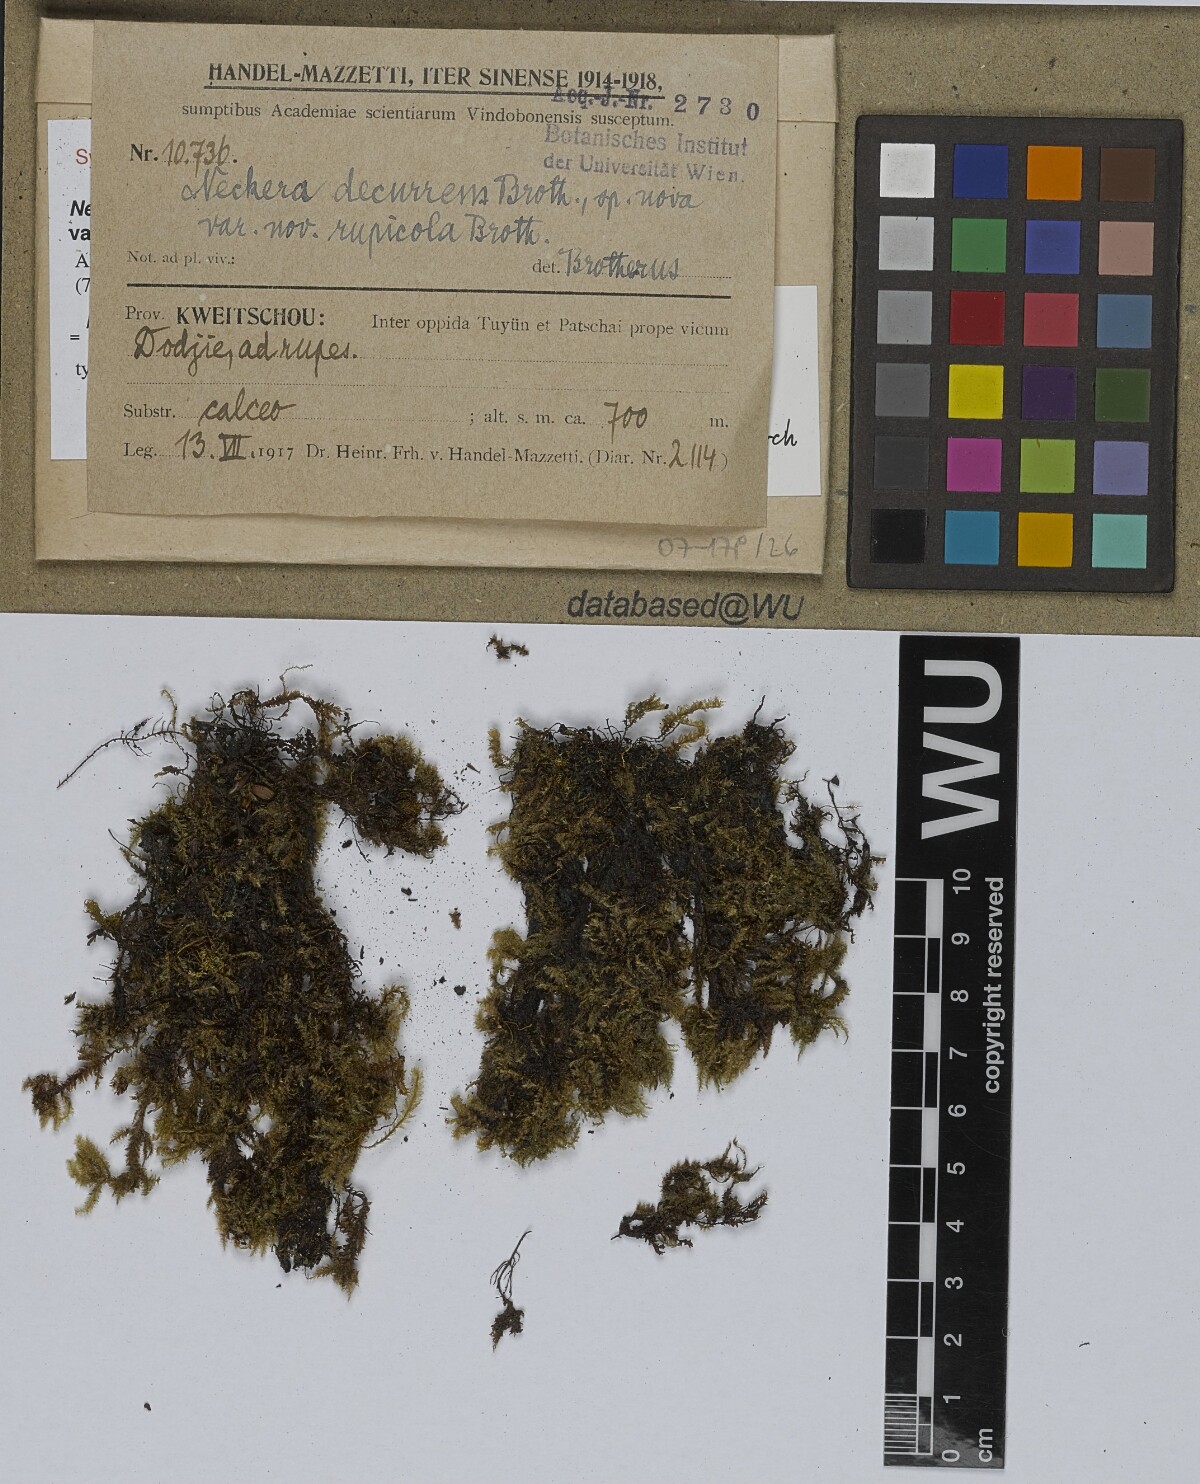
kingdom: Plantae
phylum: Bryophyta
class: Bryopsida
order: Hypnales
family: Neckeraceae
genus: Forsstroemia
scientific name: Forsstroemia fauriei
